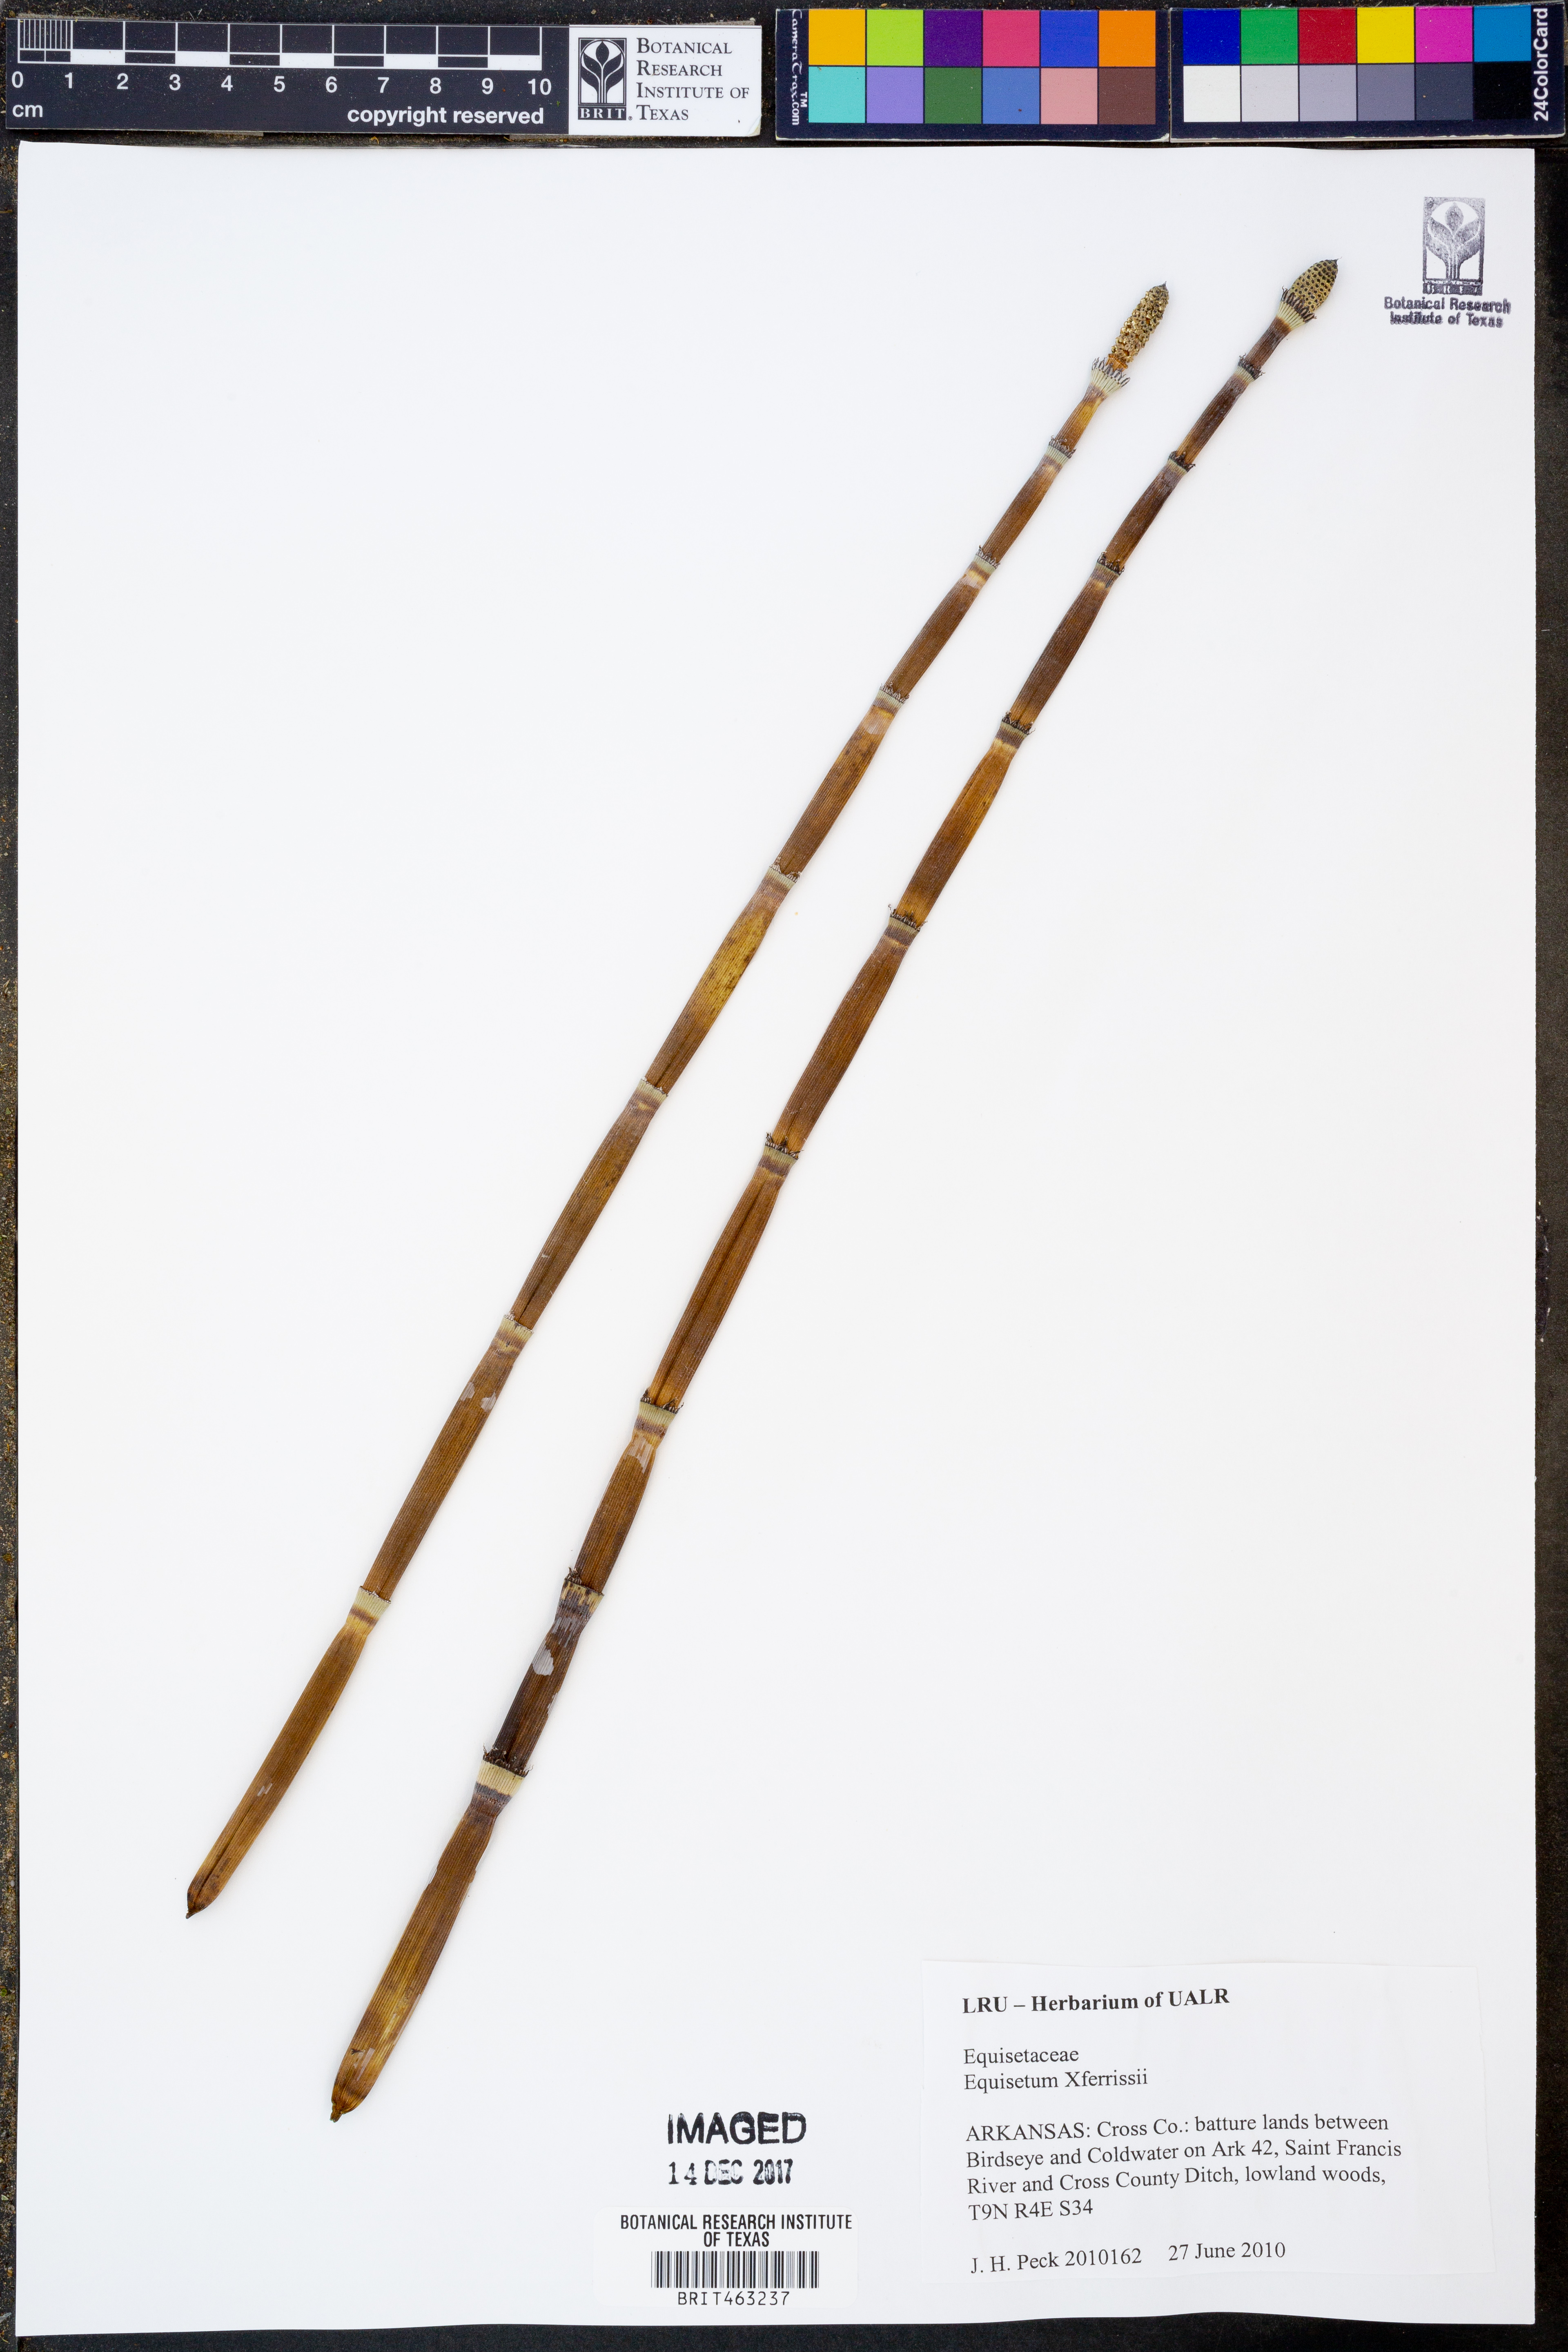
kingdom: Plantae
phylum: Tracheophyta
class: Polypodiopsida
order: Equisetales
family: Equisetaceae
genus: Equisetum
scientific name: Equisetum ferrissii
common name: Ferriss' horsetail
